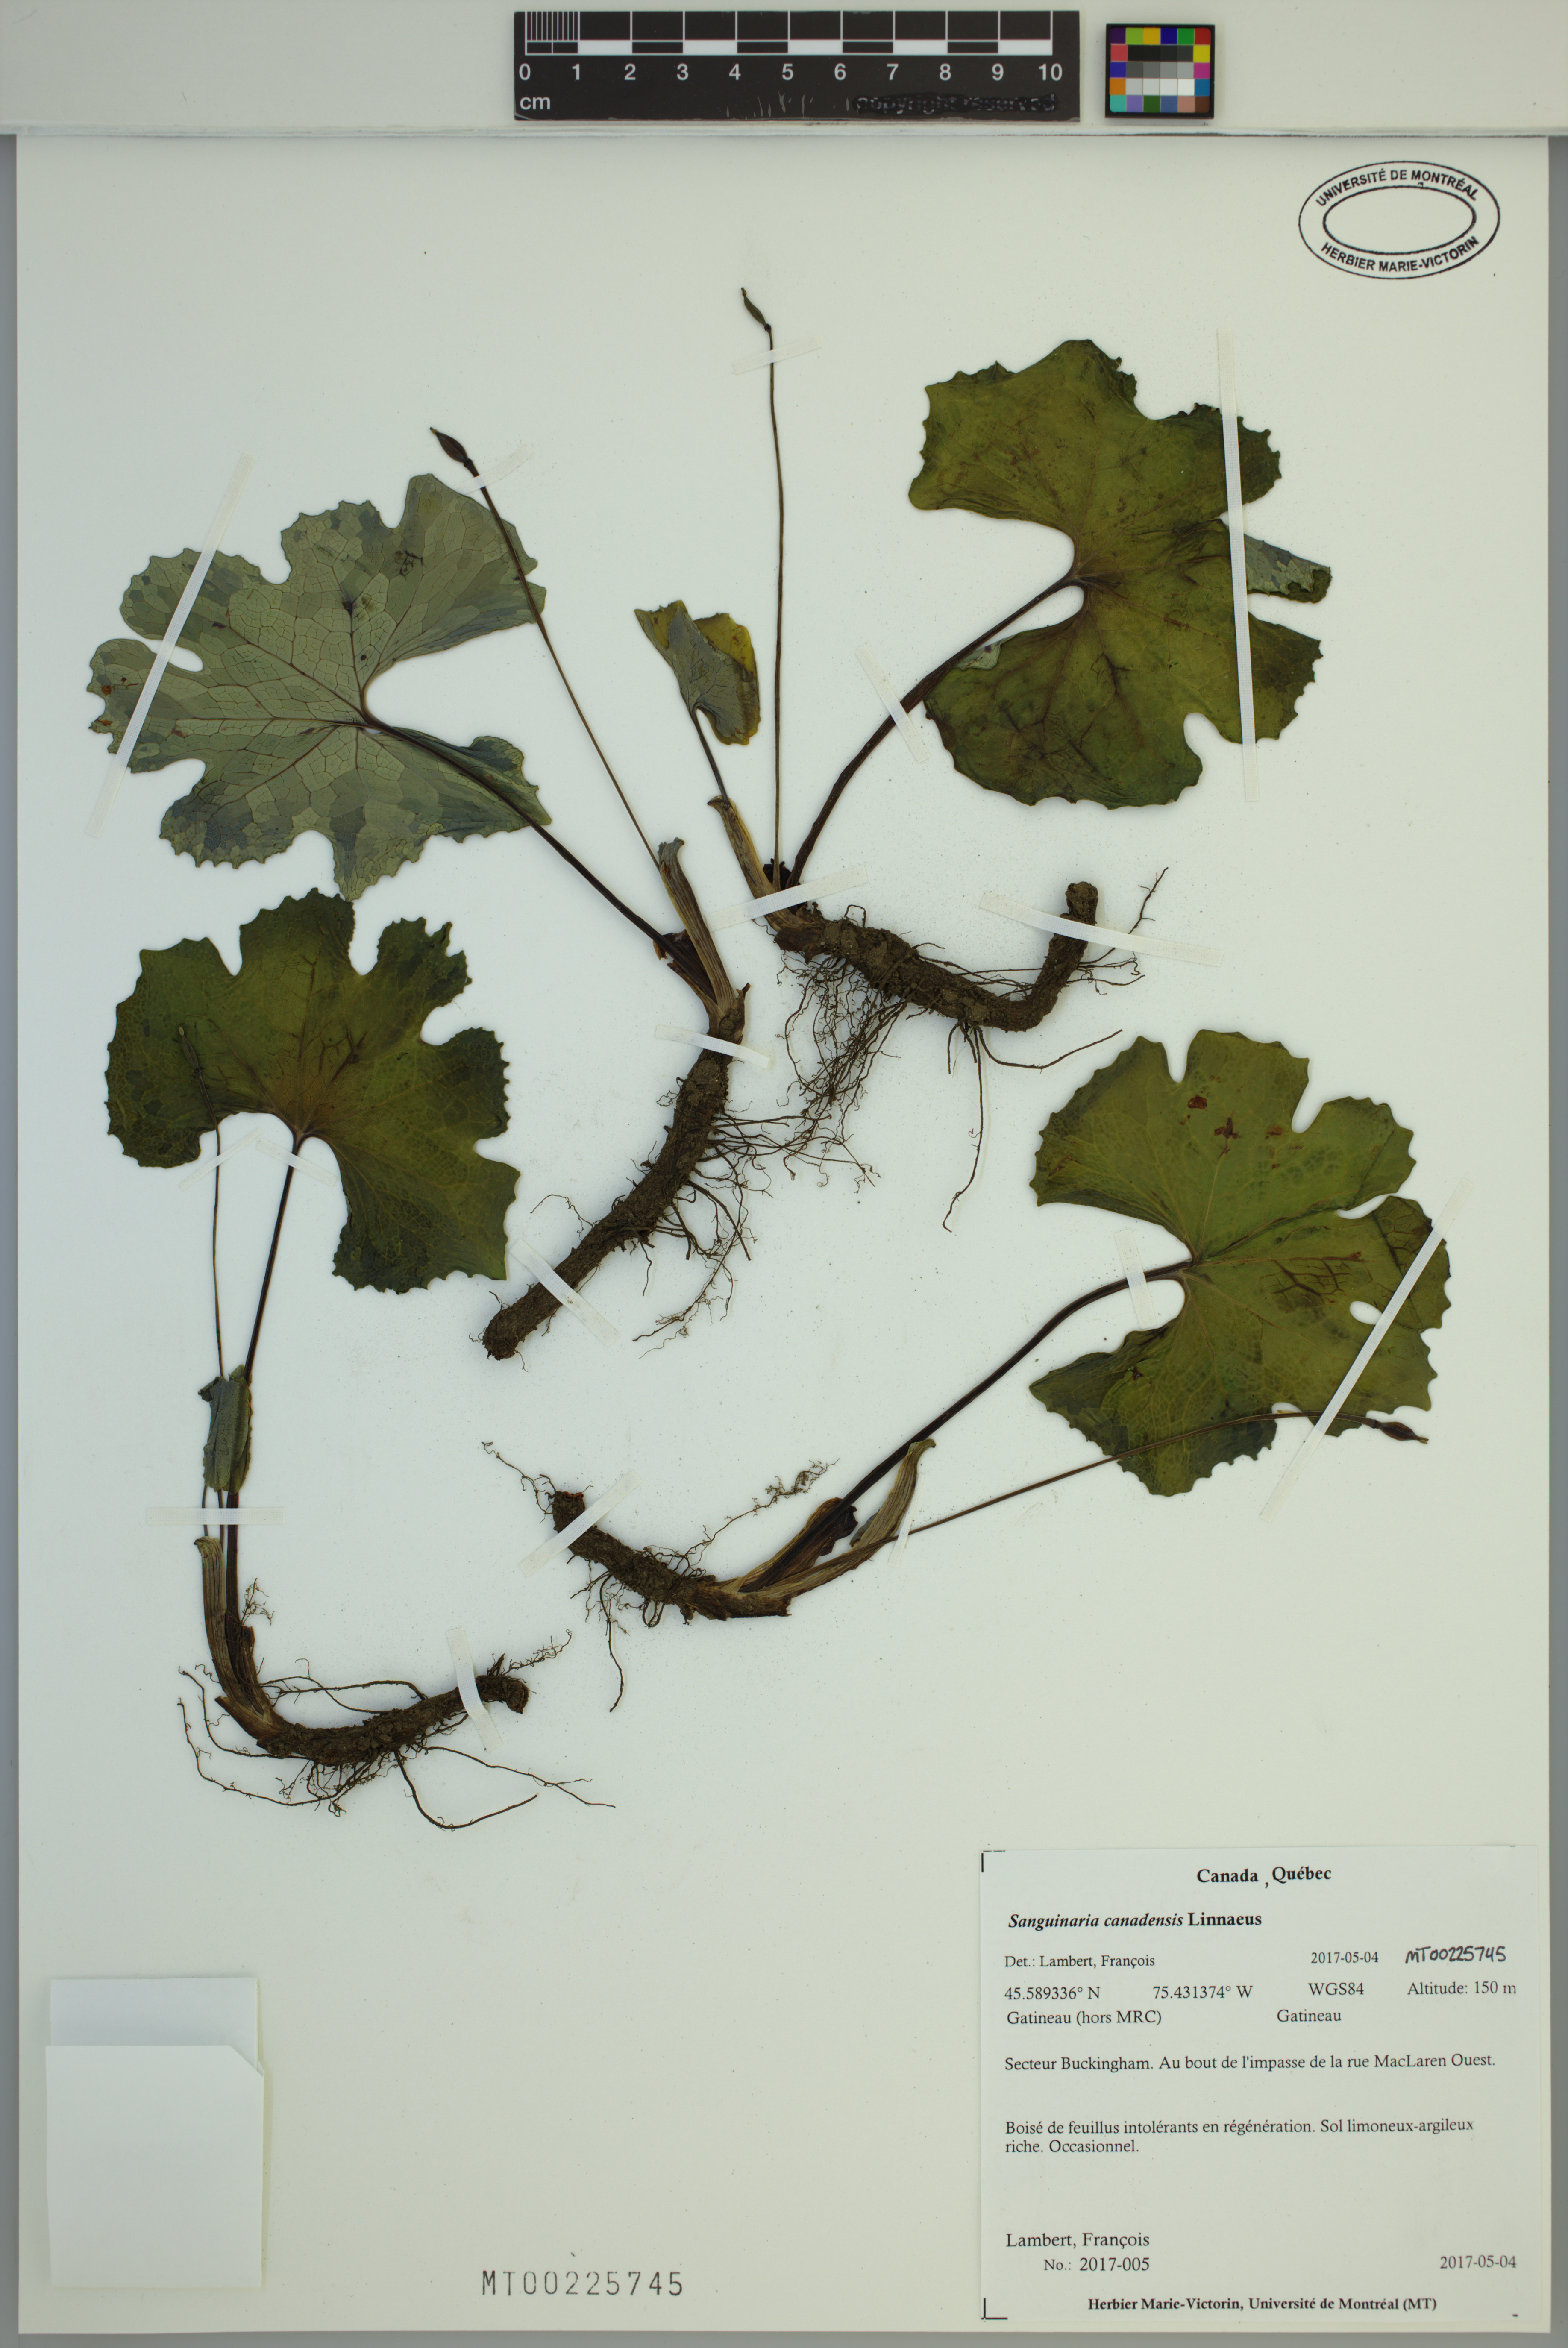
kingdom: Plantae
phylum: Tracheophyta
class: Magnoliopsida
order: Ranunculales
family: Papaveraceae
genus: Sanguinaria
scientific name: Sanguinaria canadensis
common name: Bloodroot
